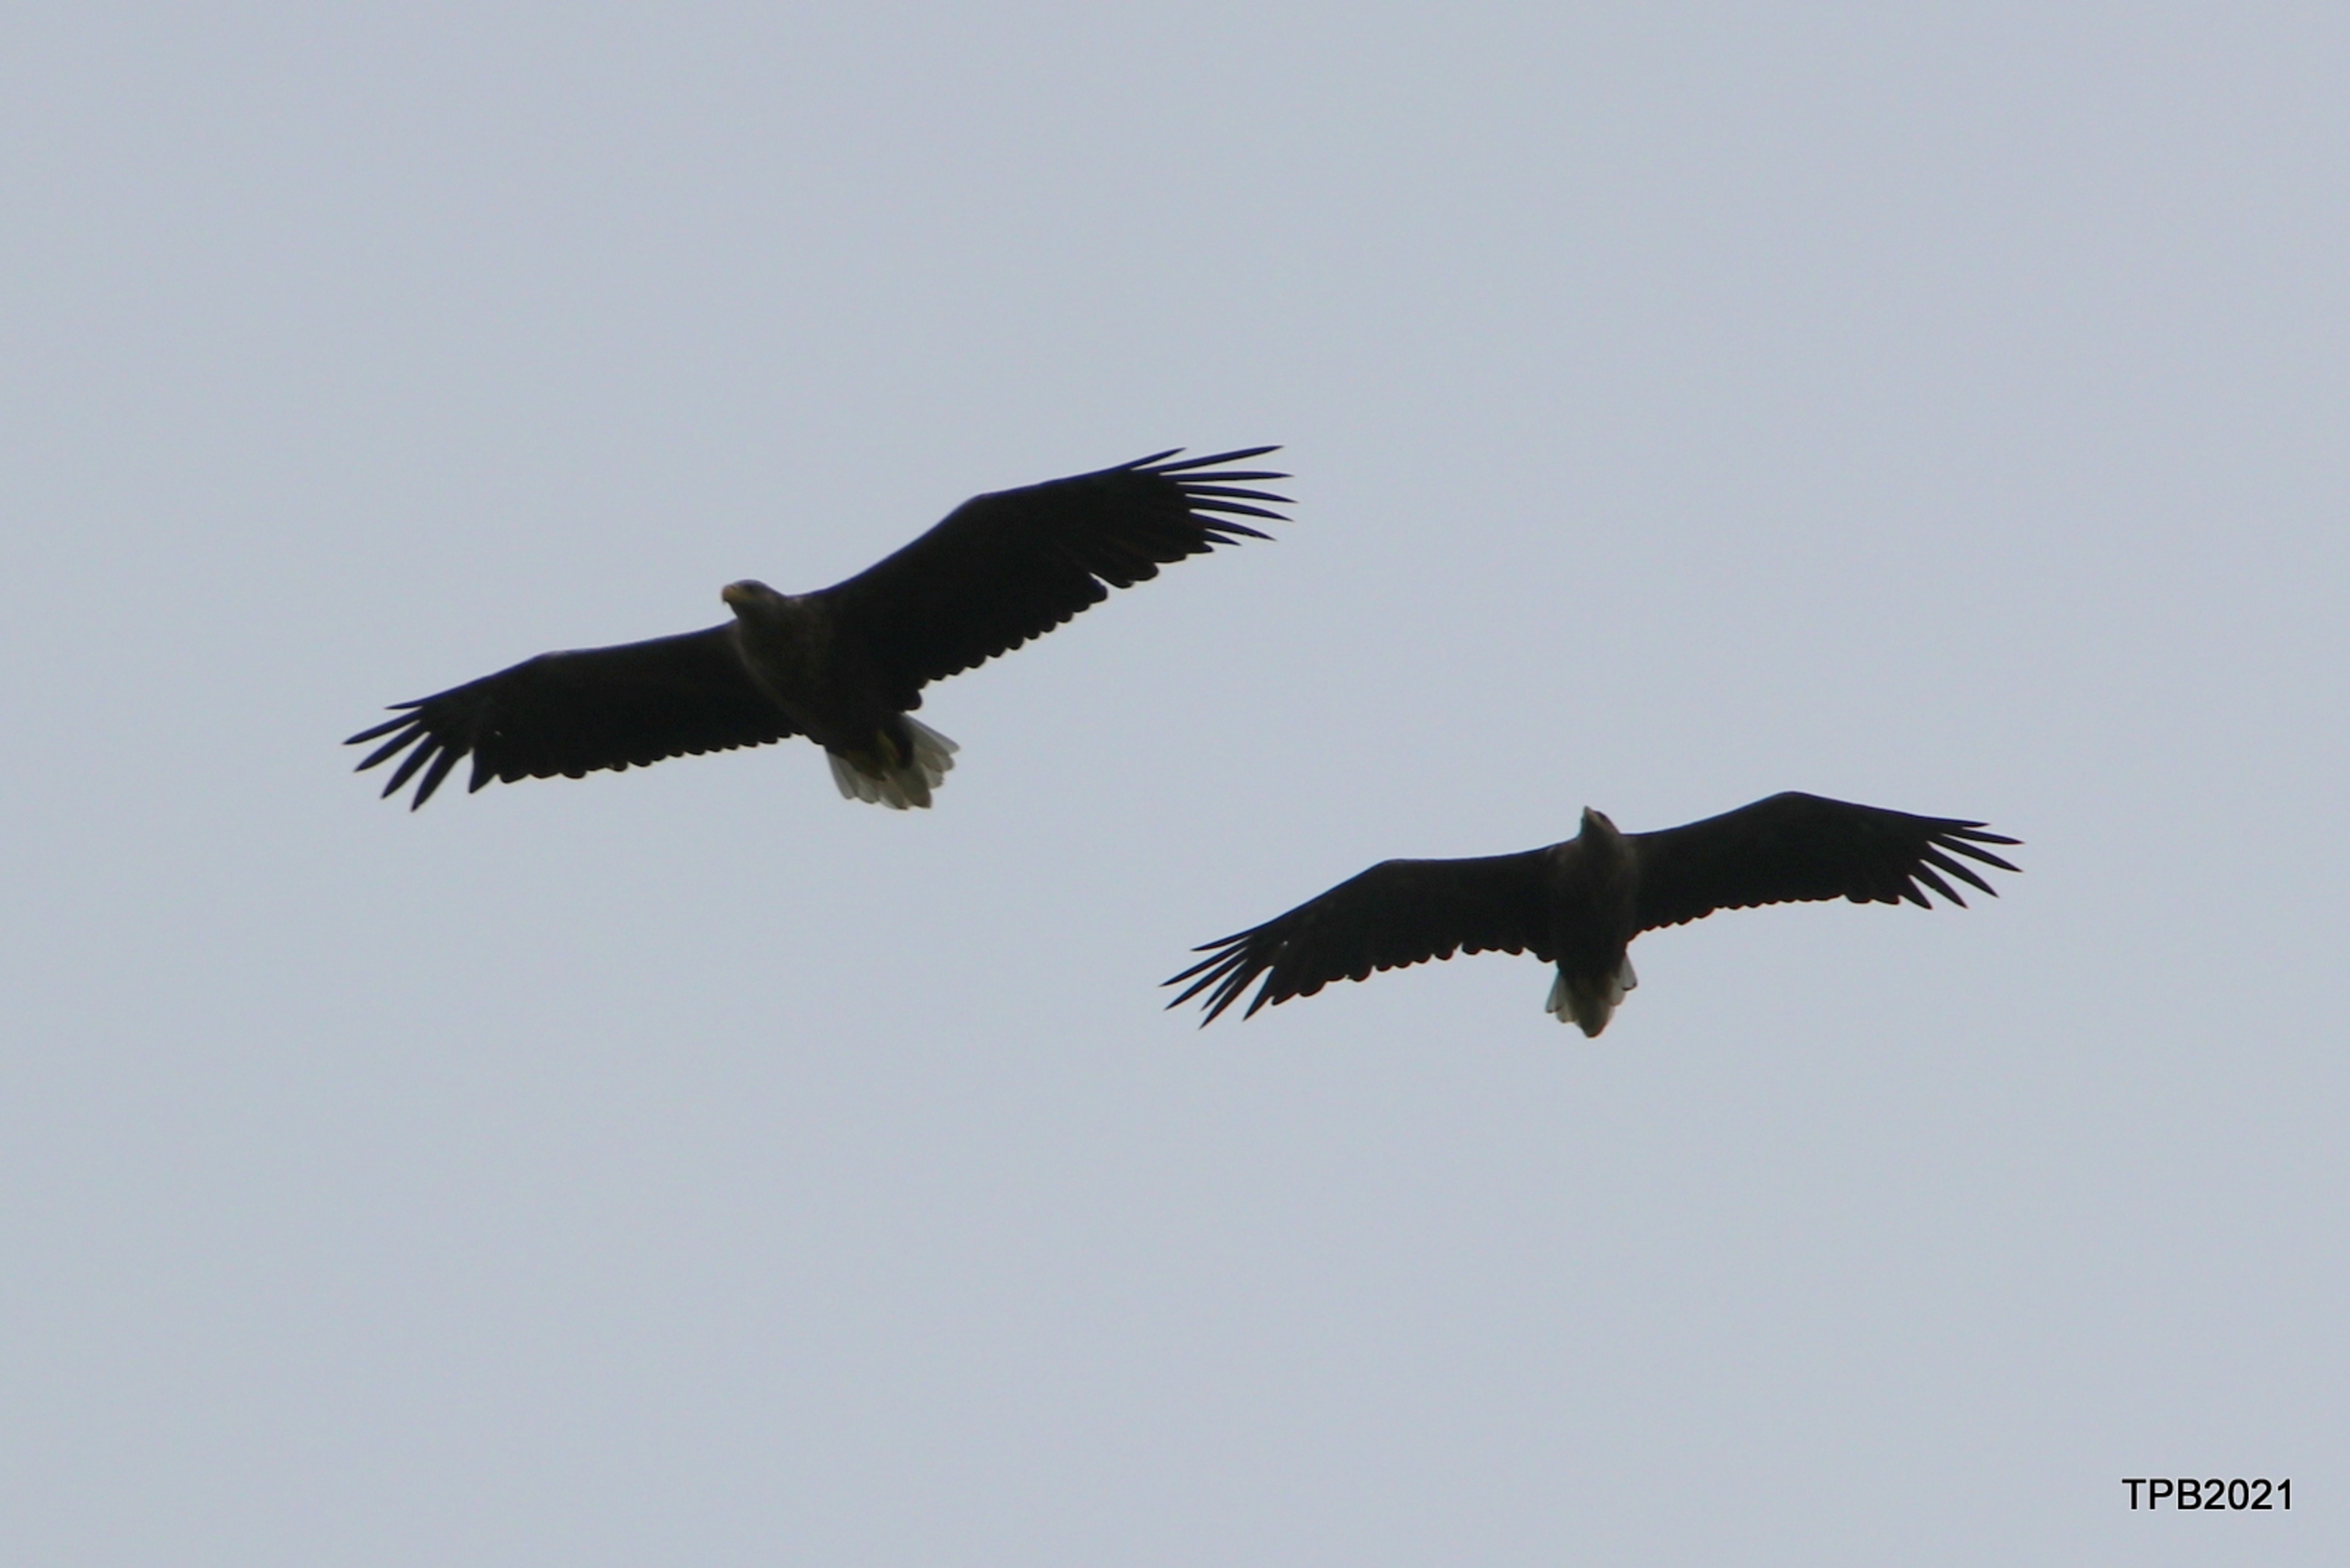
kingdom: Animalia
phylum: Chordata
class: Aves
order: Accipitriformes
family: Accipitridae
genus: Haliaeetus
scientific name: Haliaeetus albicilla
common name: Havørn
